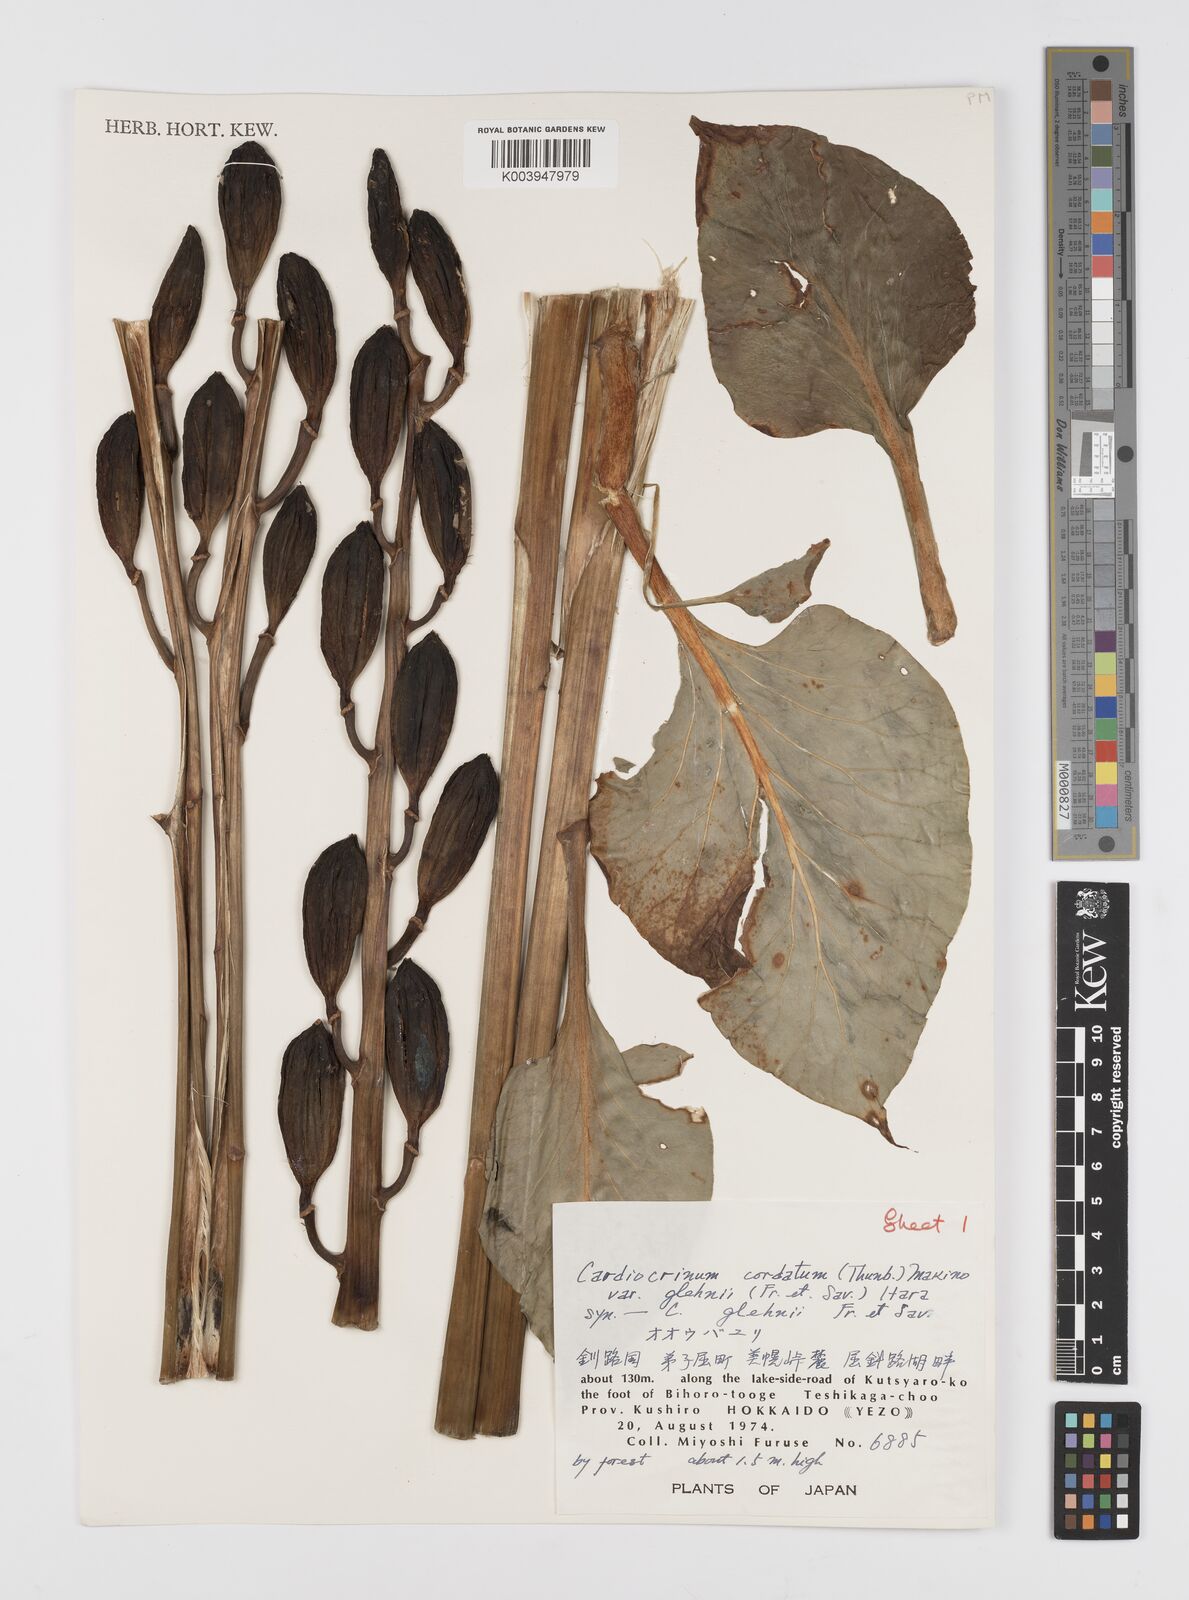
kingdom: Plantae
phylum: Tracheophyta
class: Liliopsida
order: Liliales
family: Liliaceae
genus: Cardiocrinum
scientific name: Cardiocrinum cordatum
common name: Lily
